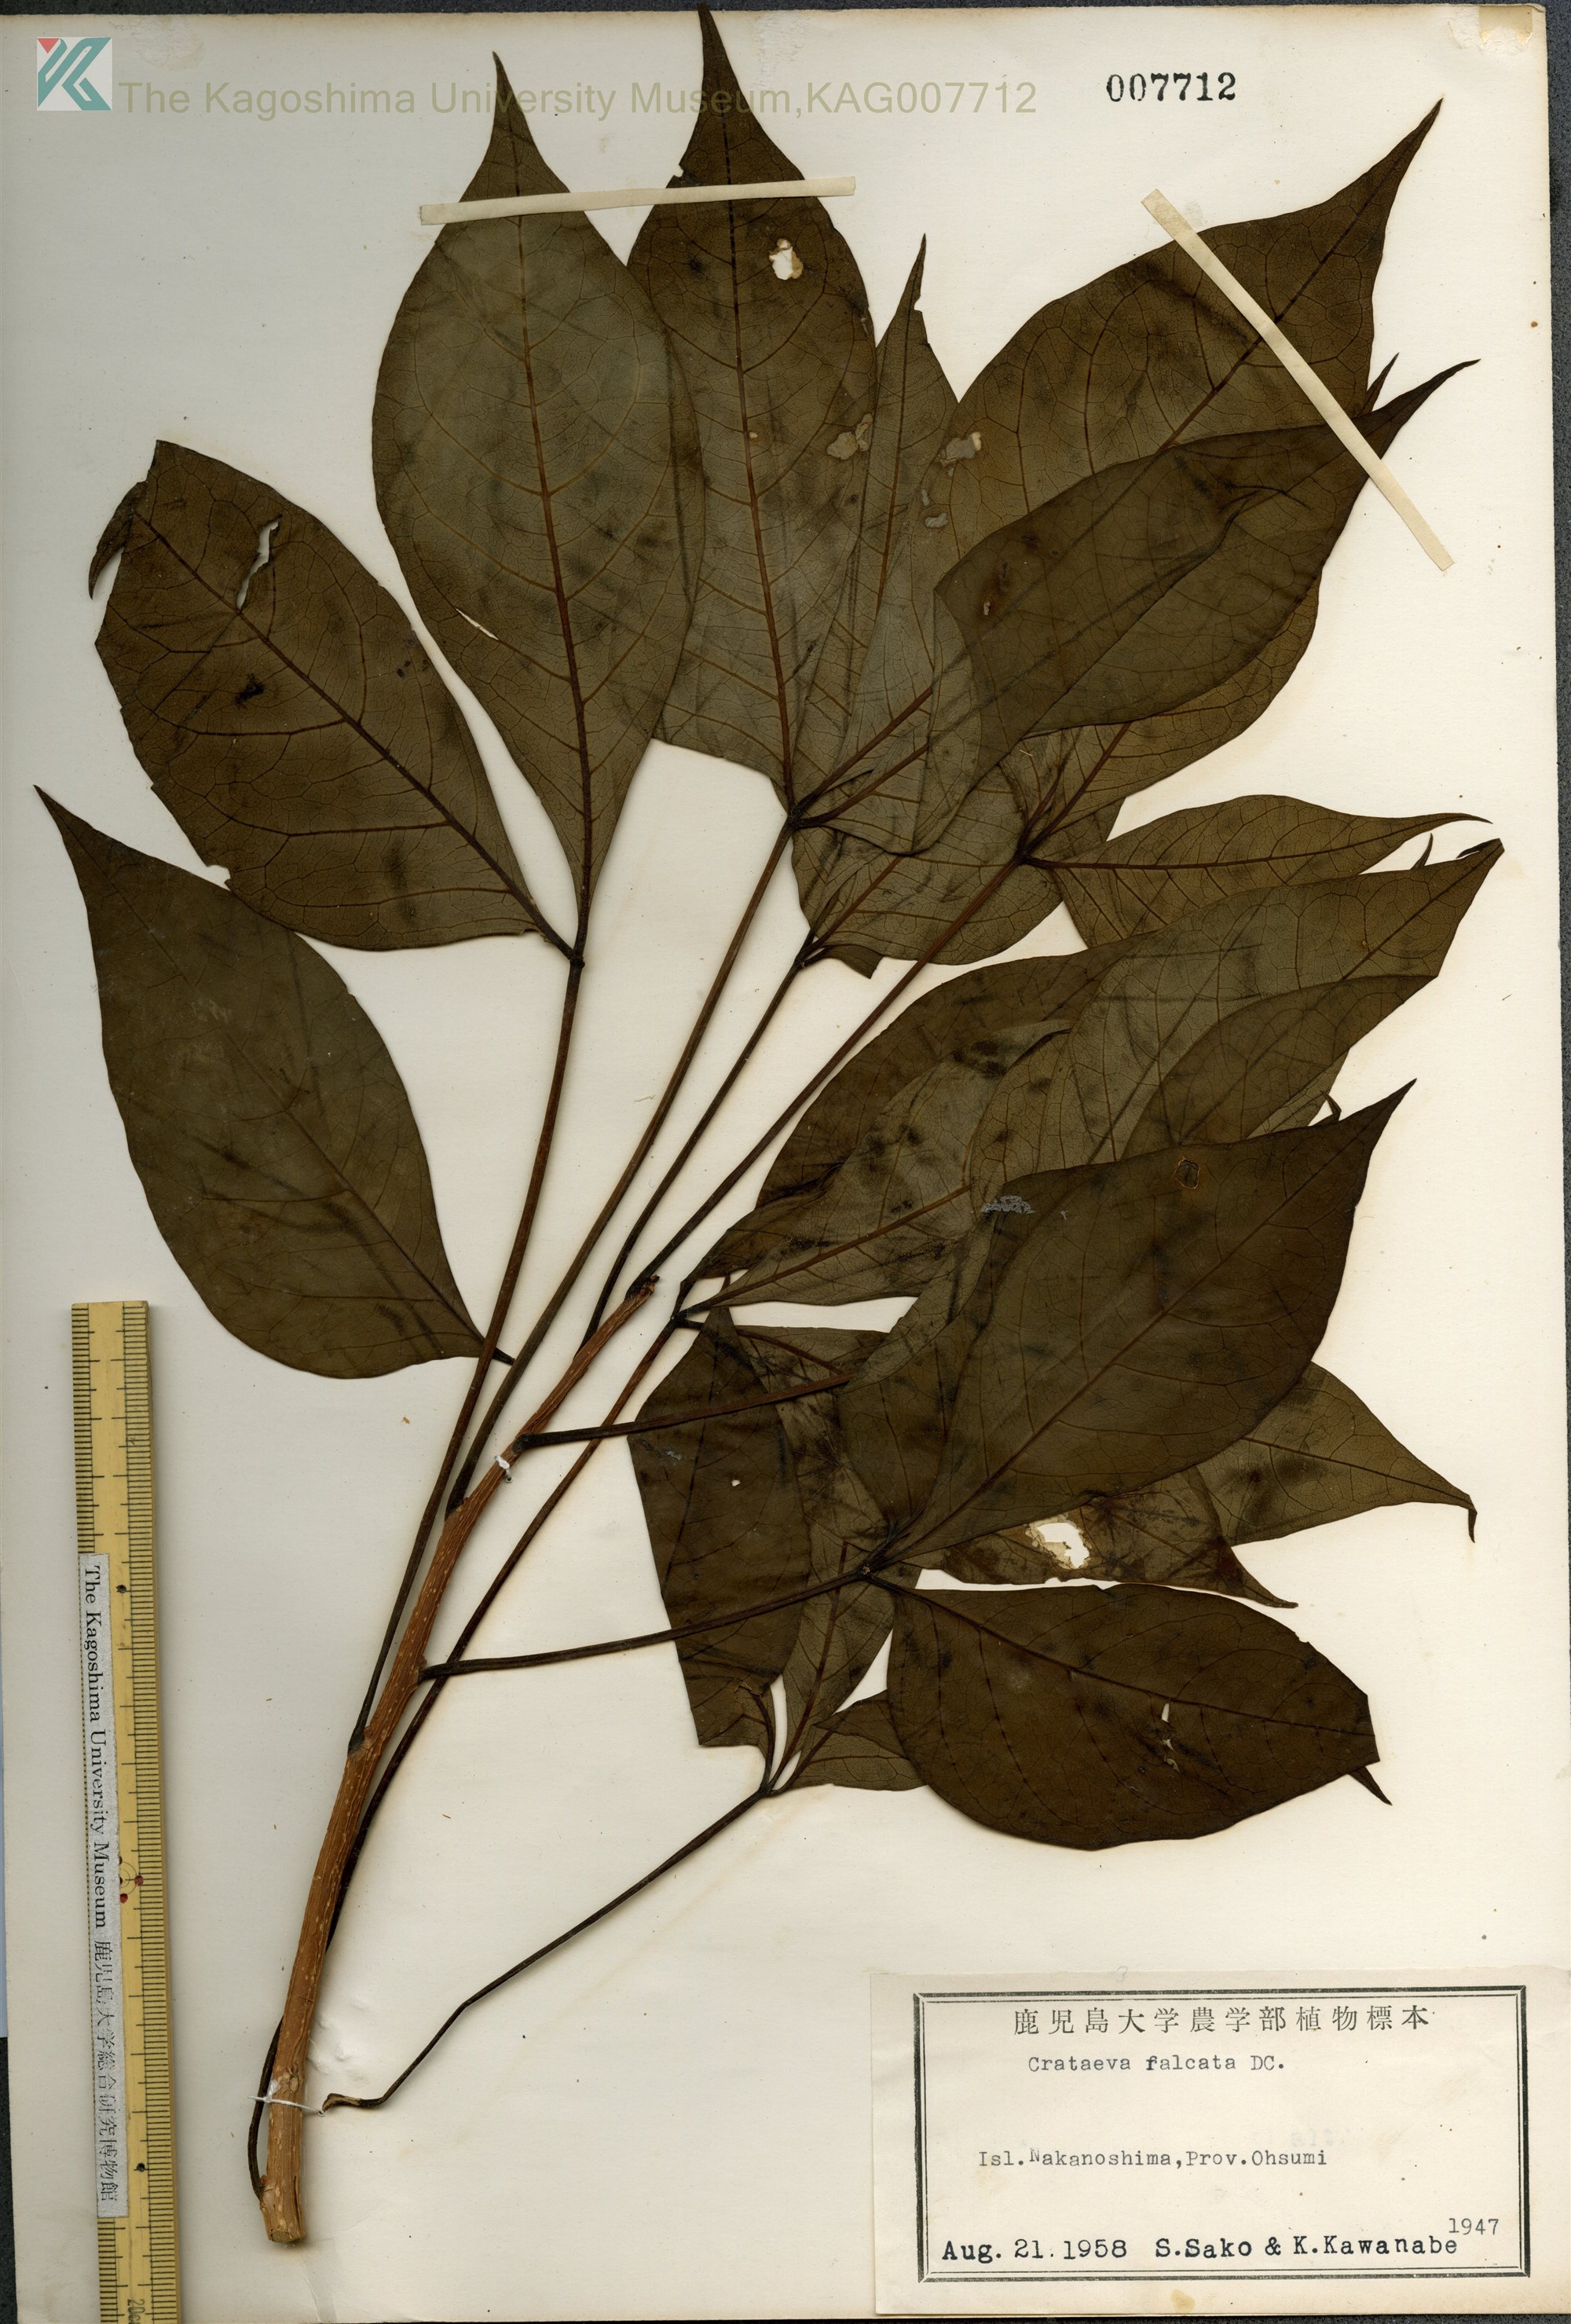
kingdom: Plantae
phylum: Tracheophyta
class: Magnoliopsida
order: Brassicales
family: Capparaceae
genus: Crateva
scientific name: Crateva formosensis
